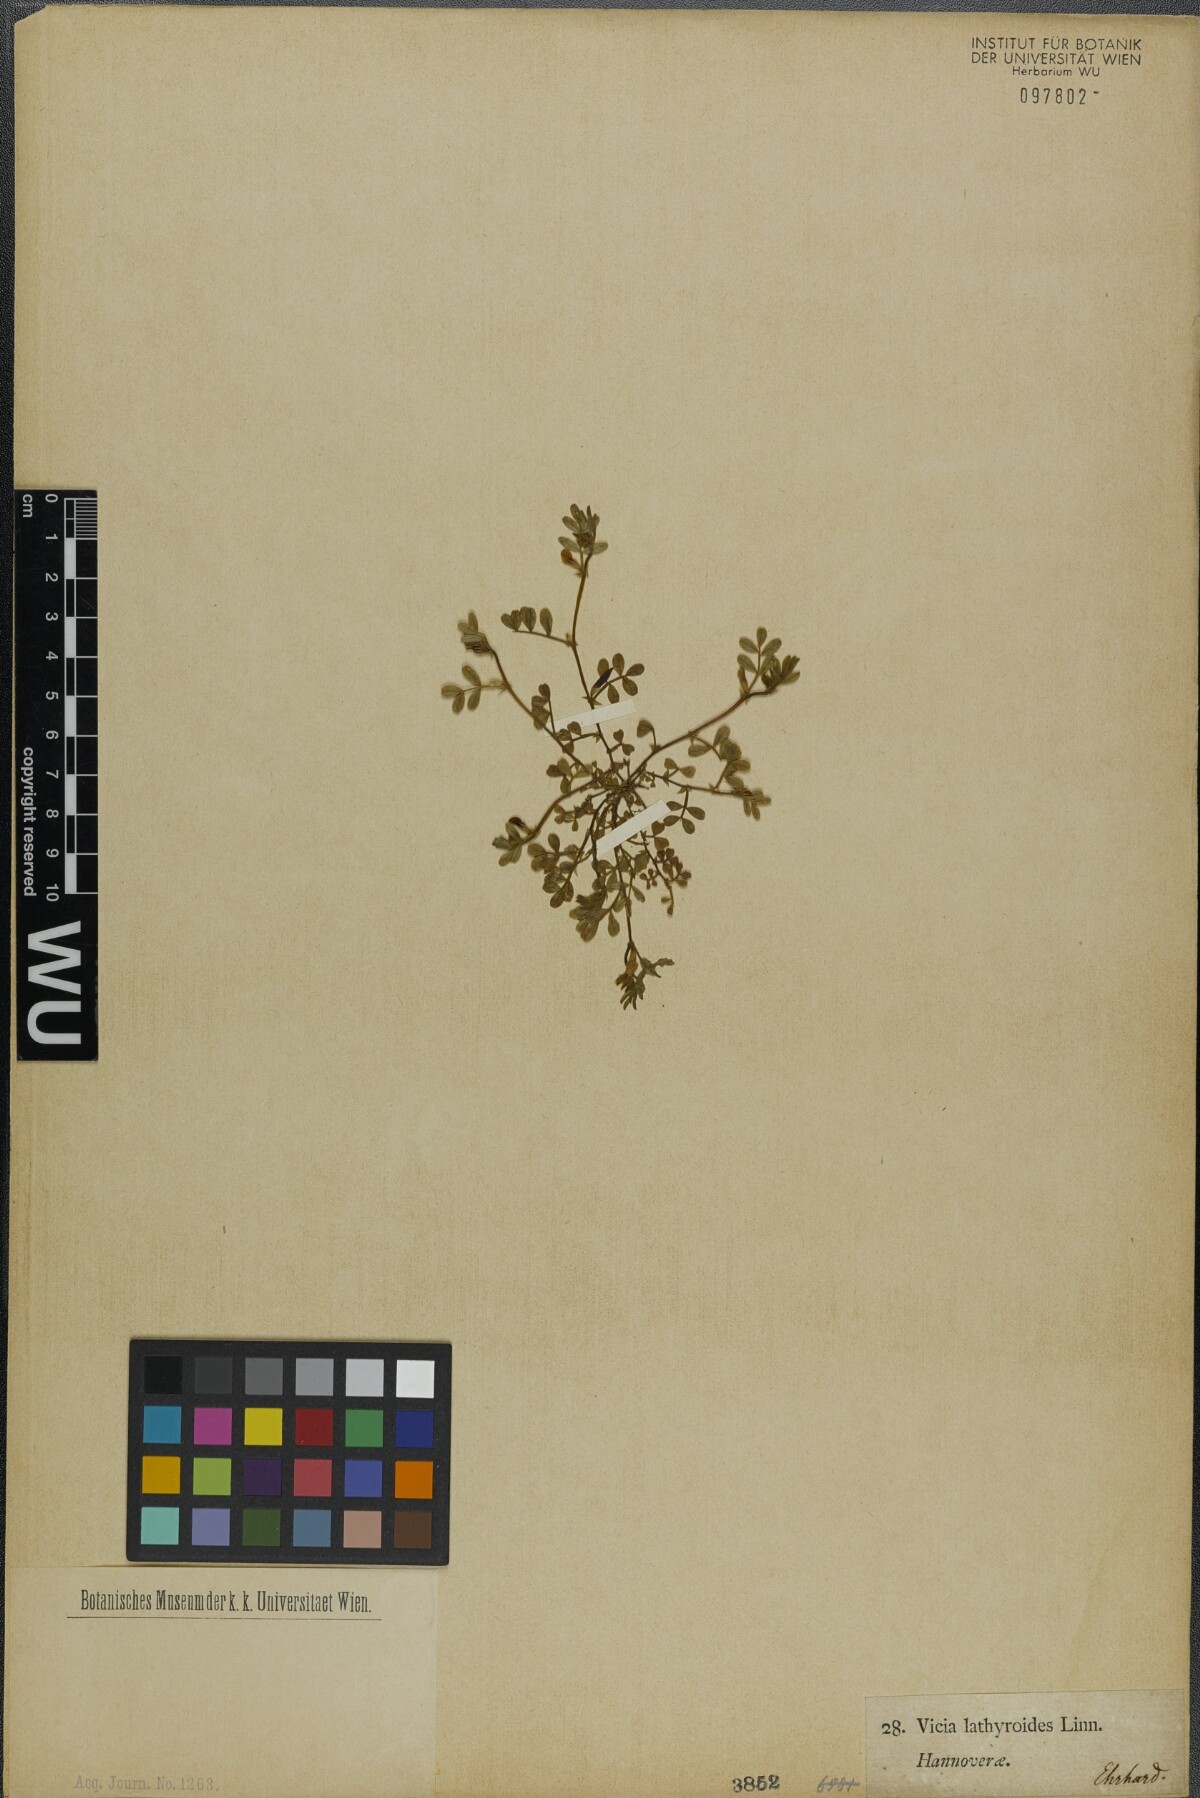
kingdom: Plantae
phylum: Tracheophyta
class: Magnoliopsida
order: Fabales
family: Fabaceae
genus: Vicia
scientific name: Vicia lathyroides
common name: Spring vetch
